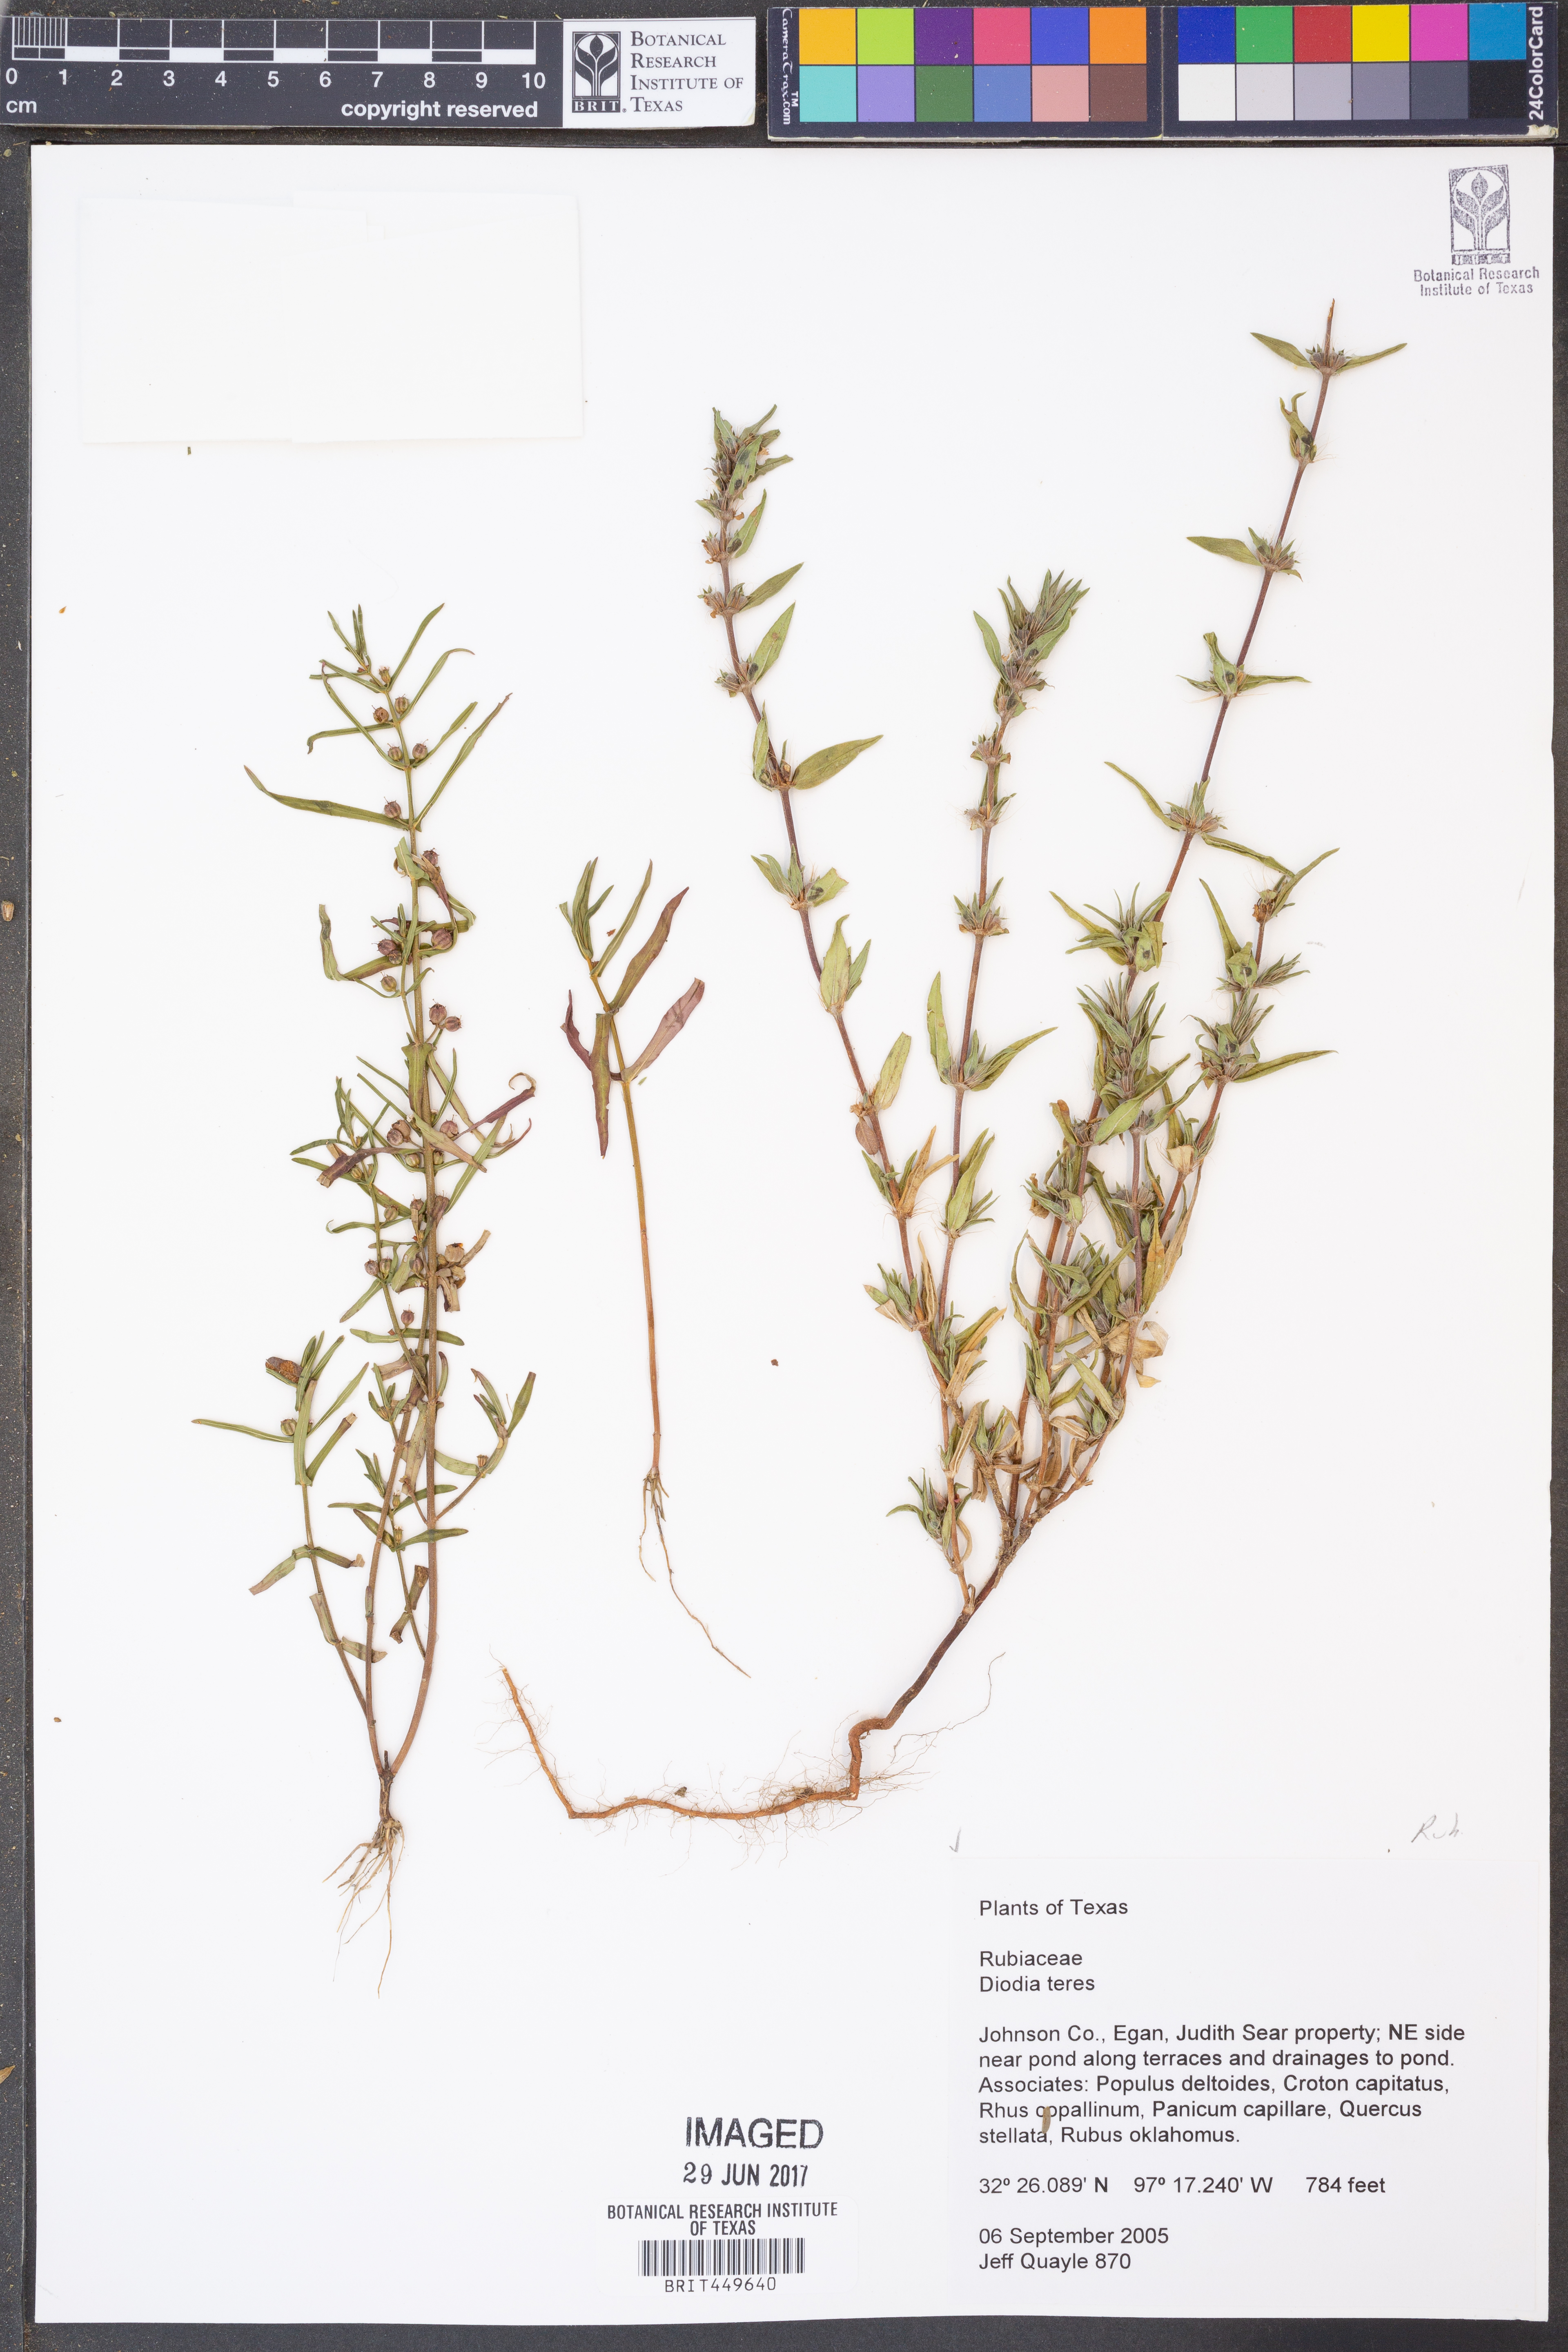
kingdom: Plantae
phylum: Tracheophyta
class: Magnoliopsida
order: Gentianales
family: Rubiaceae
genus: Hexasepalum
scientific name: Hexasepalum teres
